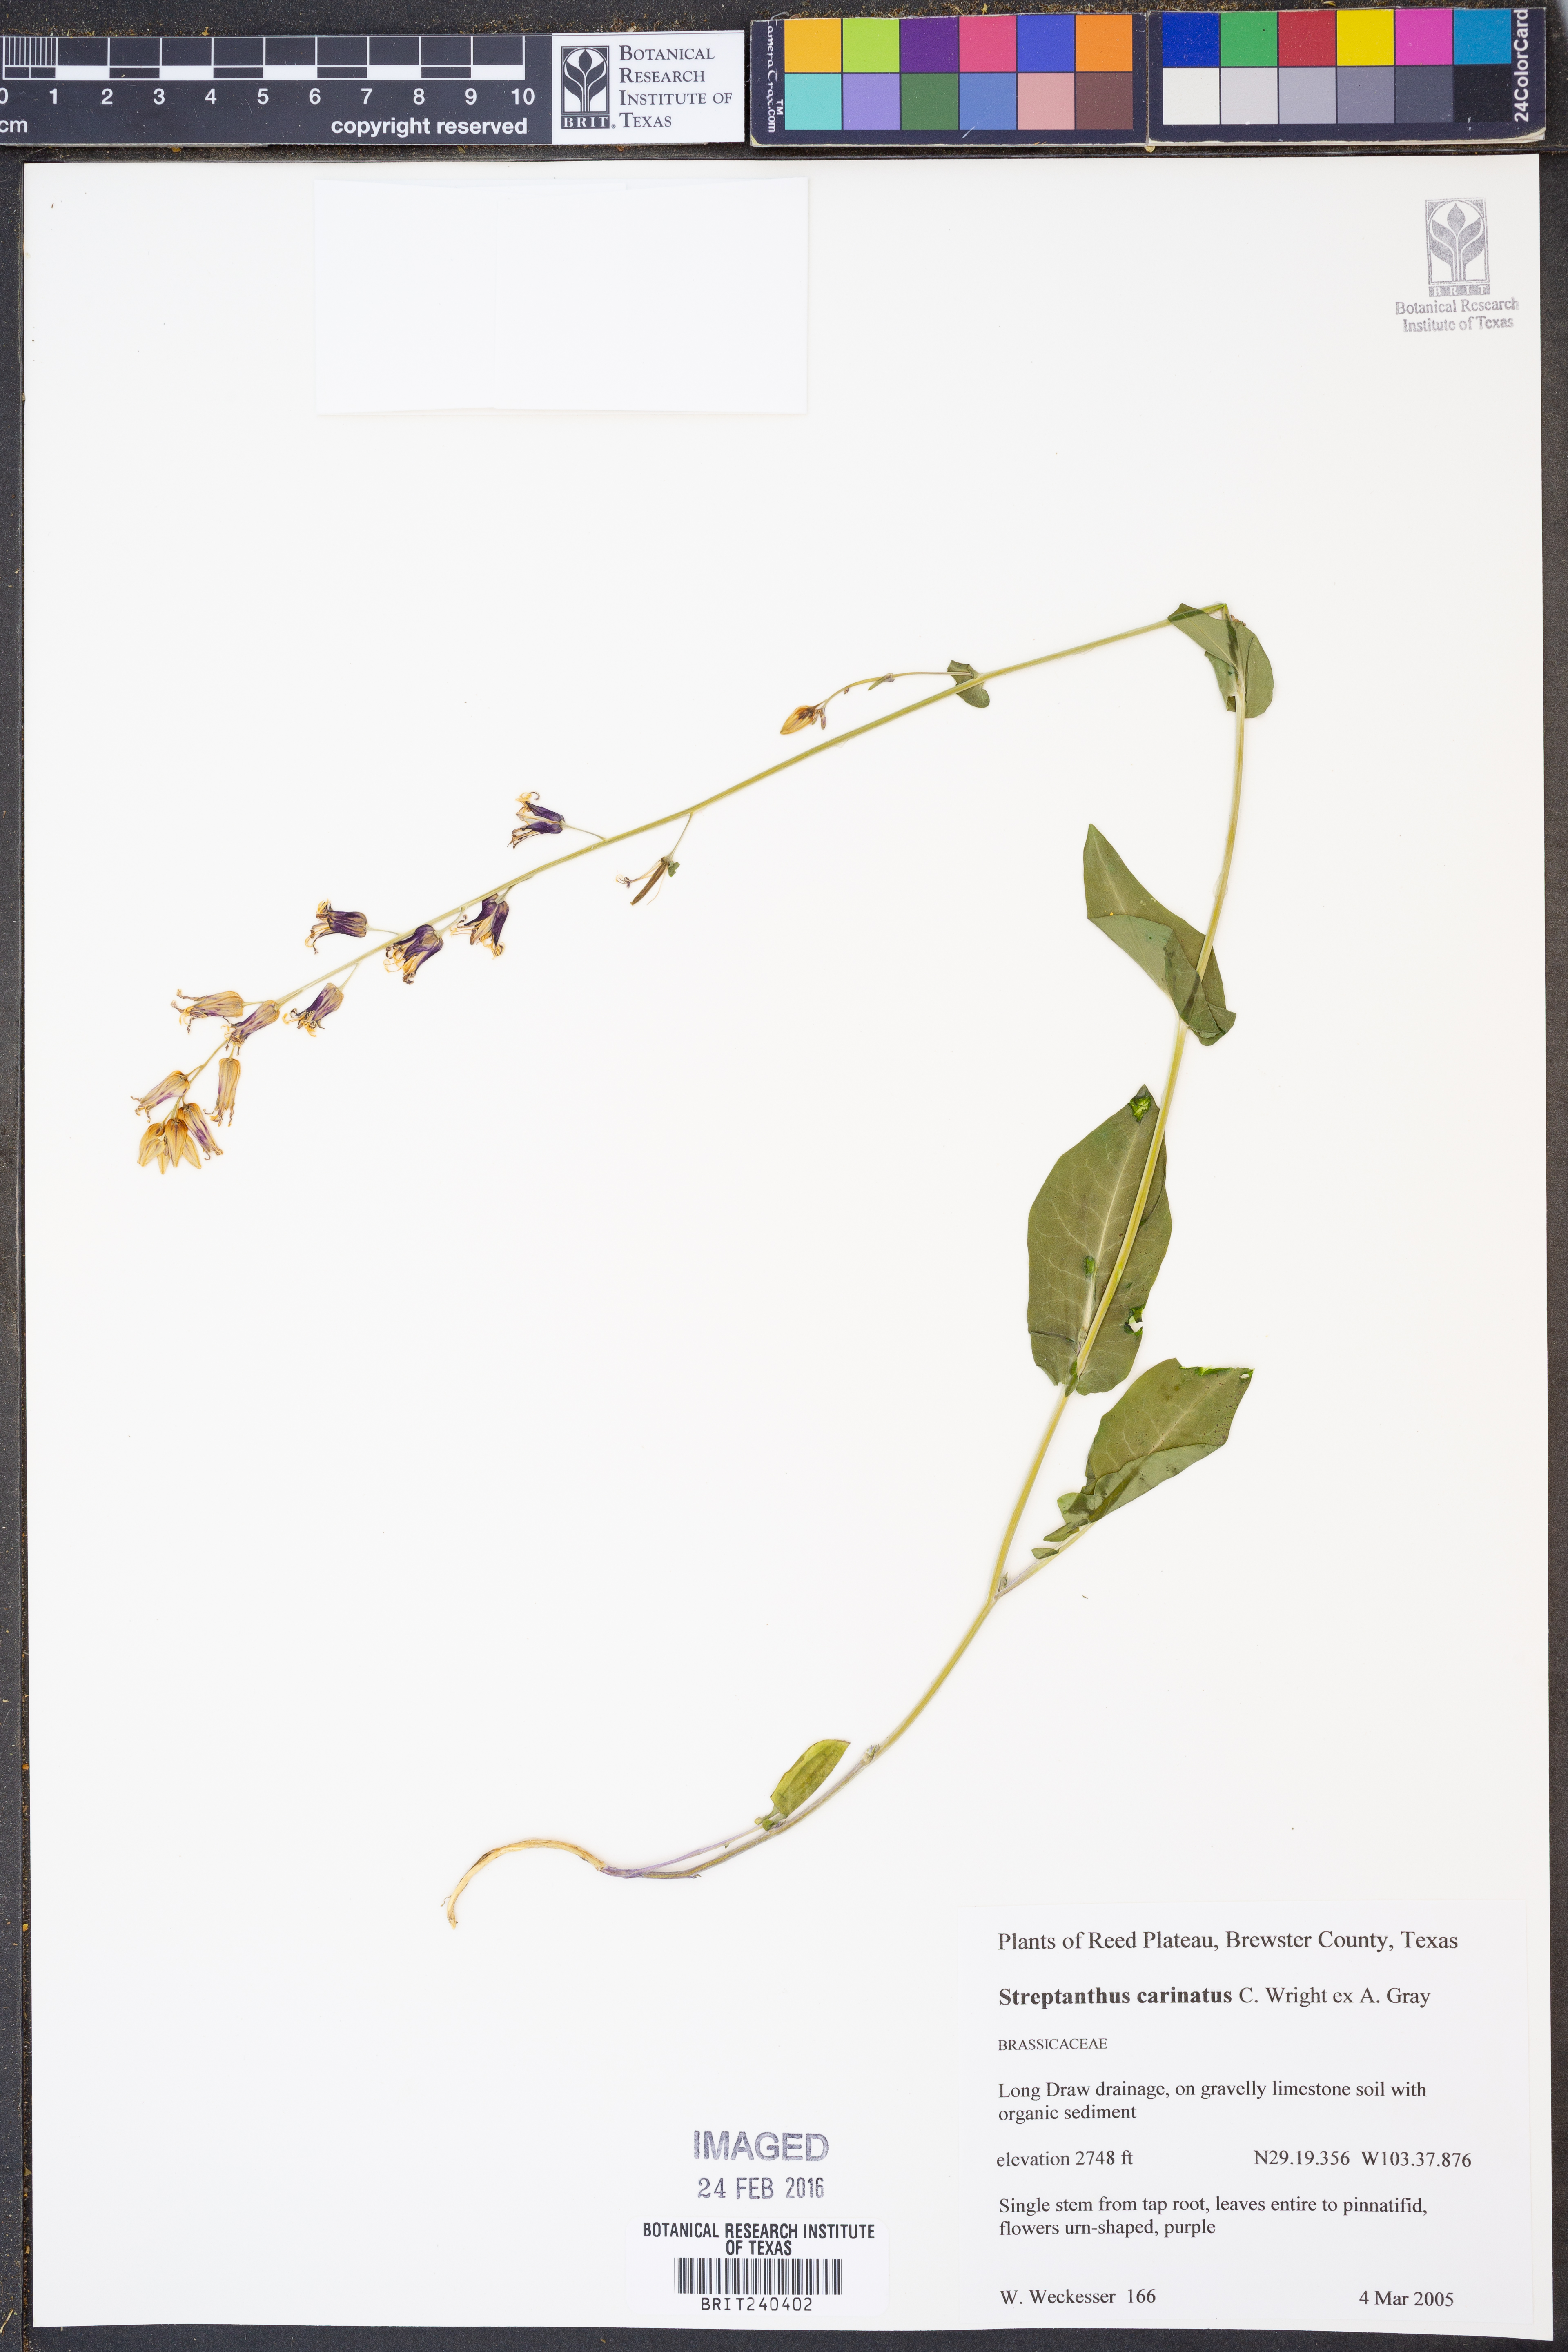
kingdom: Plantae
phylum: Tracheophyta
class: Magnoliopsida
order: Brassicales
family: Brassicaceae
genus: Streptanthus
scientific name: Streptanthus carinatus
